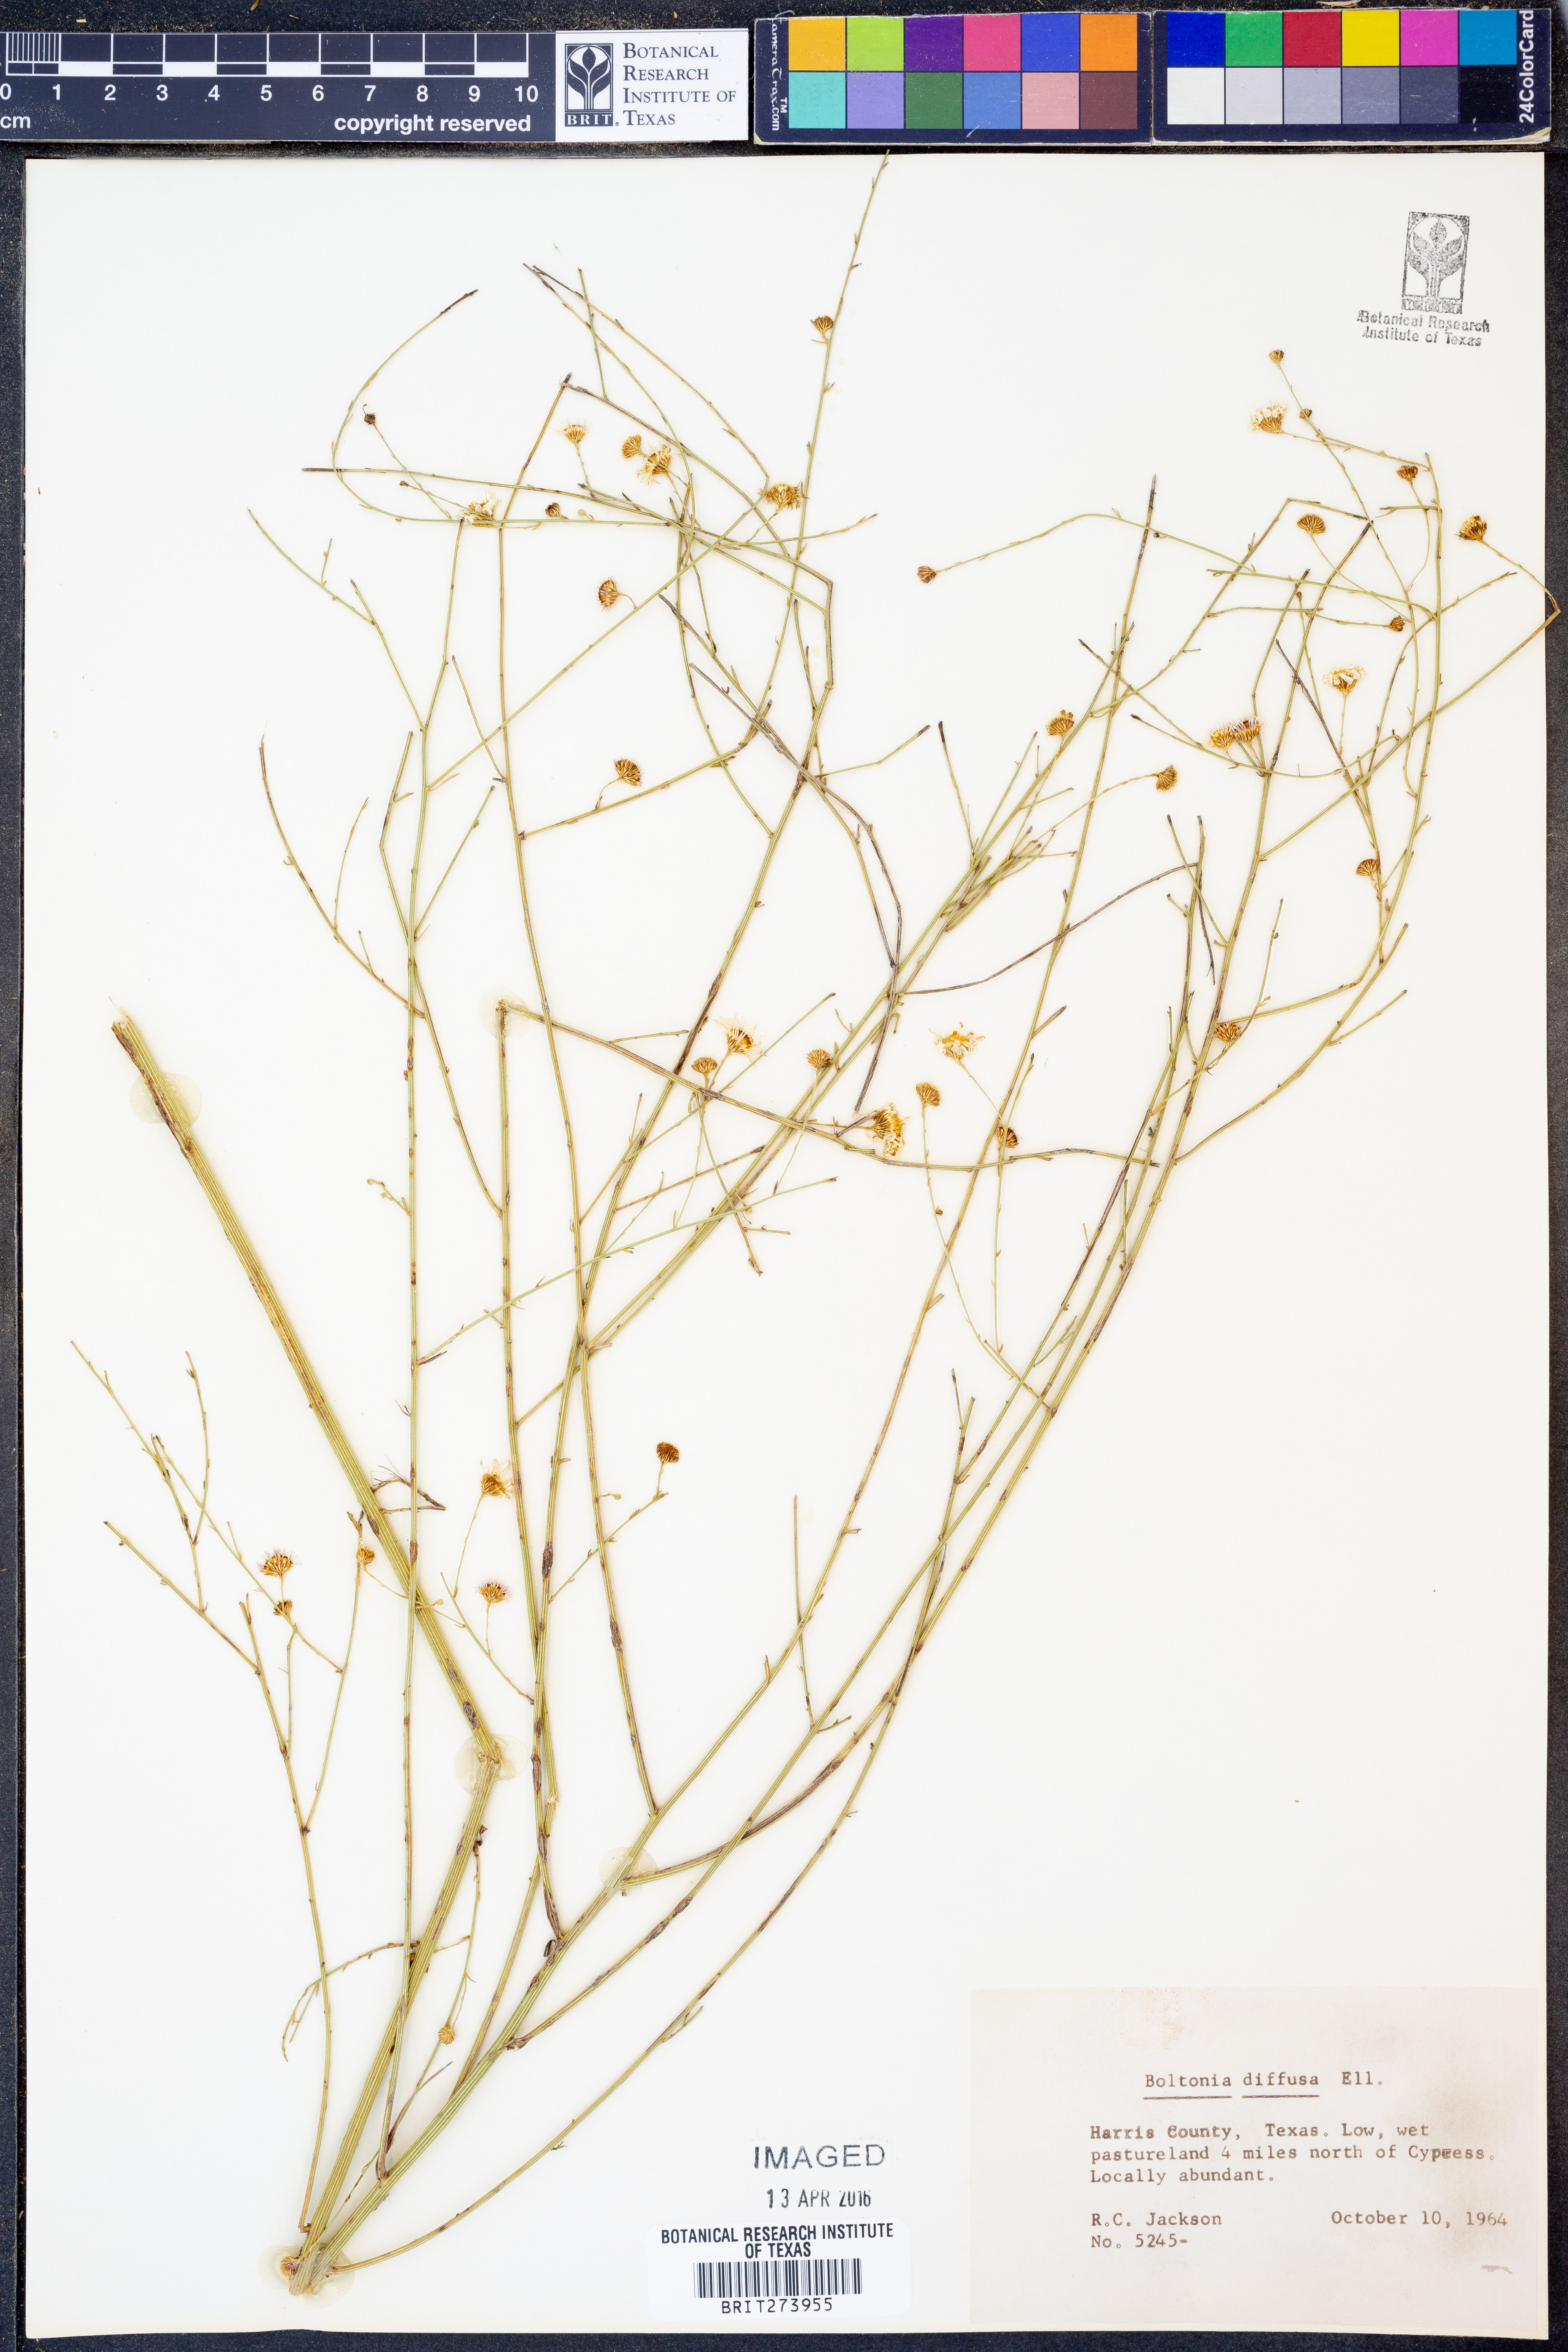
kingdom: Plantae
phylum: Tracheophyta
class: Magnoliopsida
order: Asterales
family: Asteraceae
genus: Boltonia
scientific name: Boltonia diffusa
